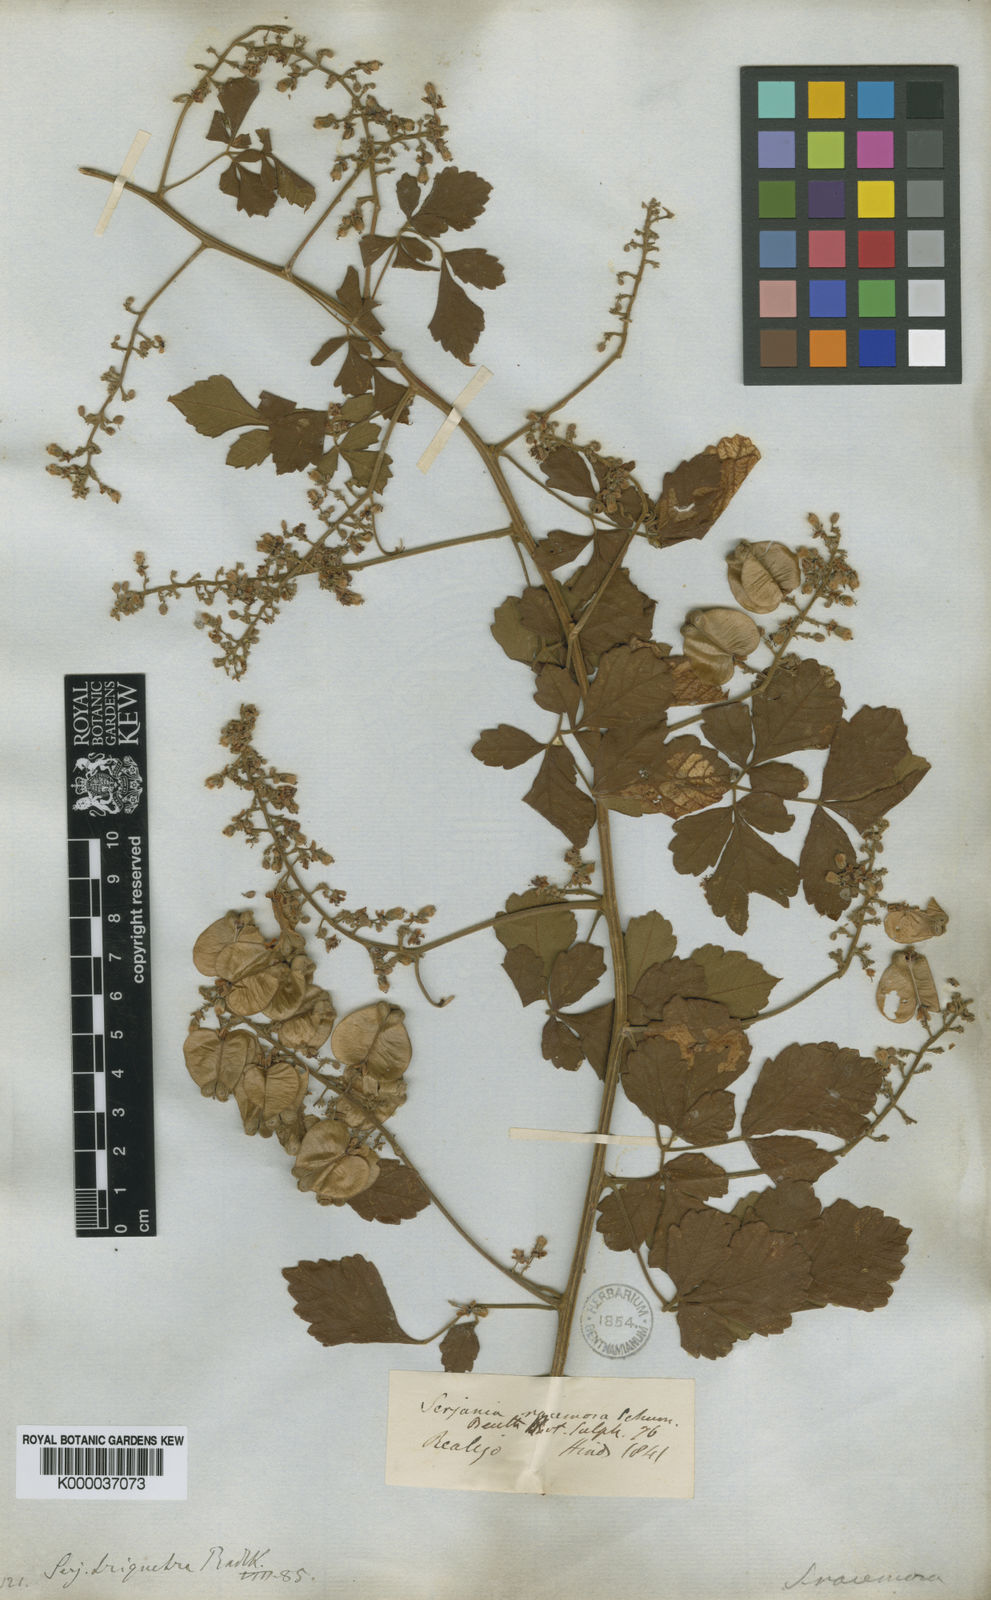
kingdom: Plantae
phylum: Tracheophyta
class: Magnoliopsida
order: Sapindales
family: Sapindaceae
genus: Serjania
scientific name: Serjania triquetra
